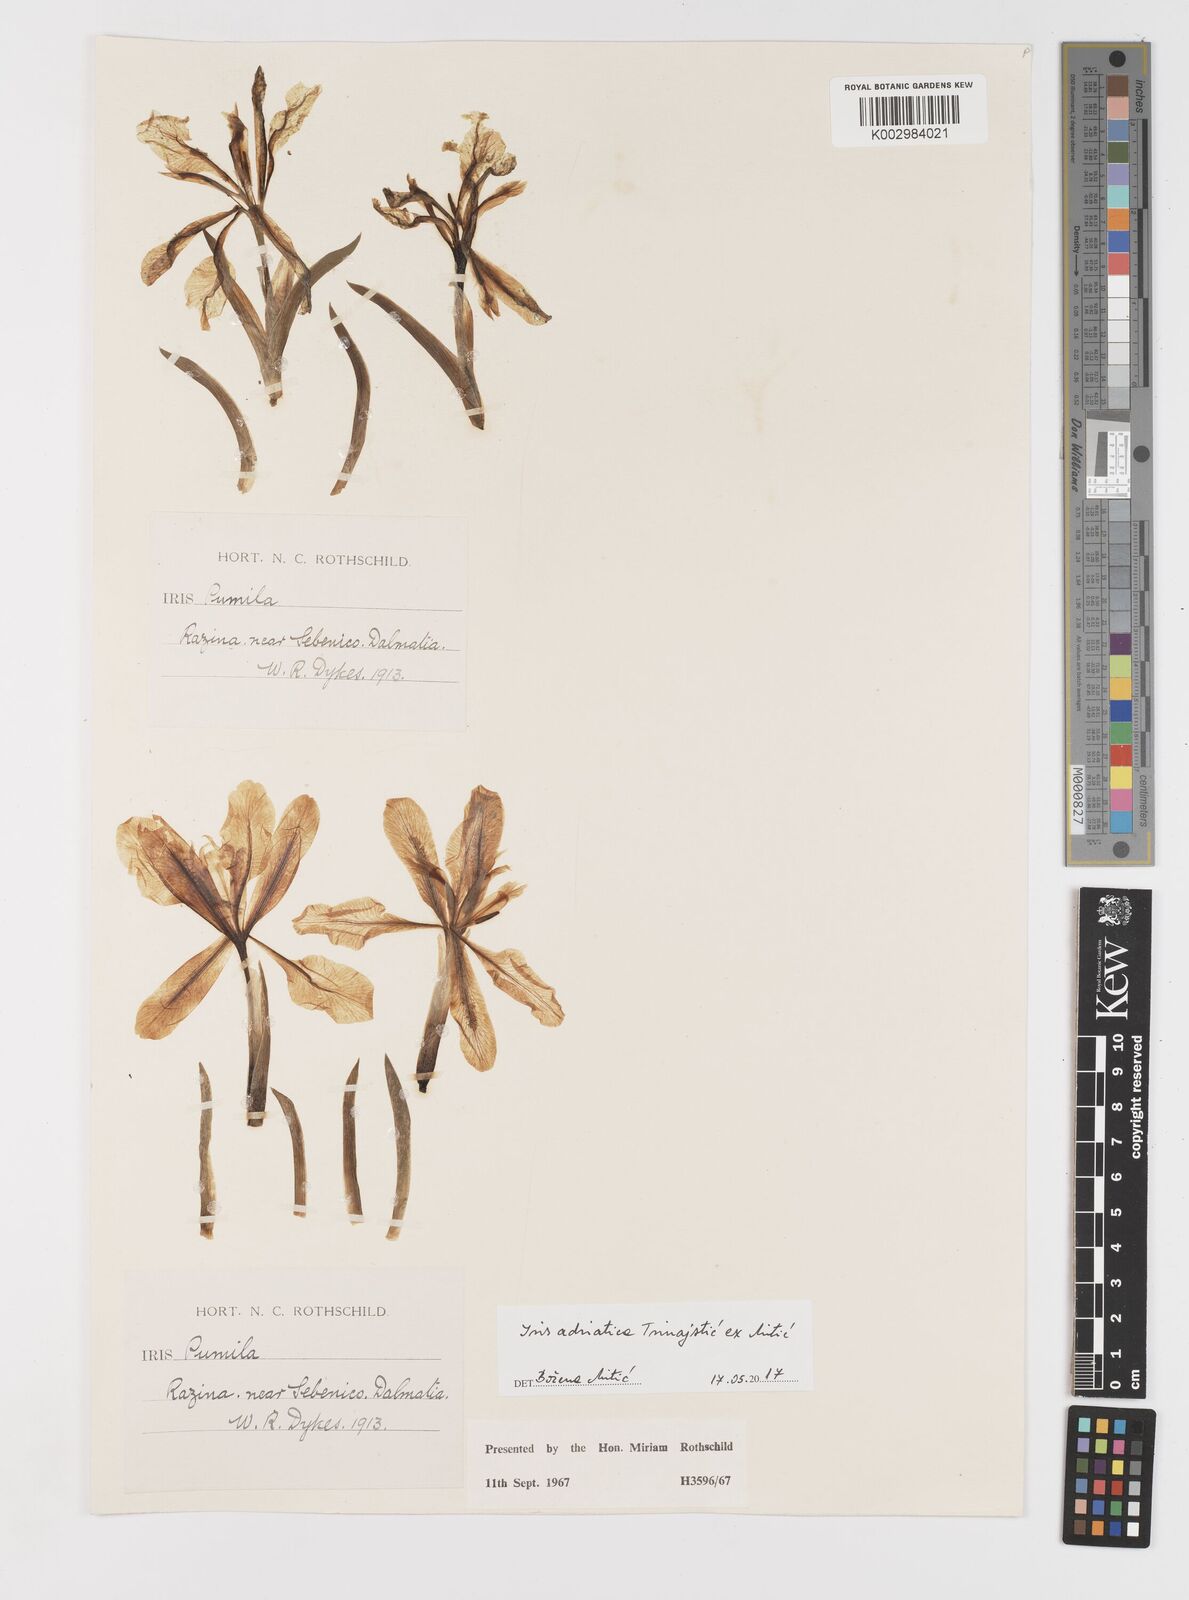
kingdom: Plantae
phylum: Tracheophyta
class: Liliopsida
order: Asparagales
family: Iridaceae
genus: Iris
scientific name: Iris adriatica
